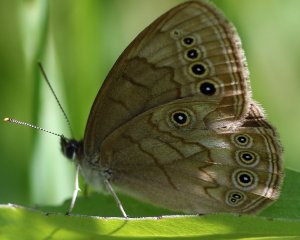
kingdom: Animalia
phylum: Arthropoda
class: Insecta
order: Lepidoptera
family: Nymphalidae
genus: Lethe
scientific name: Lethe eurydice
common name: Eyed Brown
